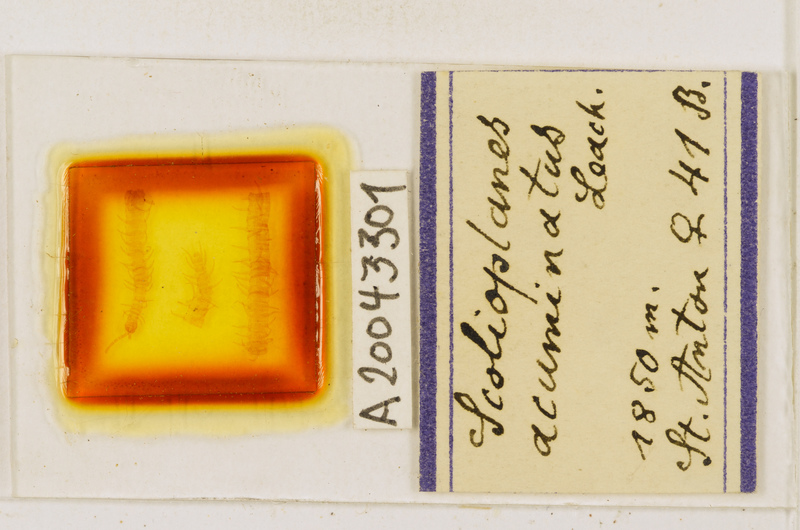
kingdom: Animalia
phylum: Arthropoda
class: Chilopoda
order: Geophilomorpha
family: Linotaeniidae
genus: Strigamia
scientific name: Strigamia acuminata
